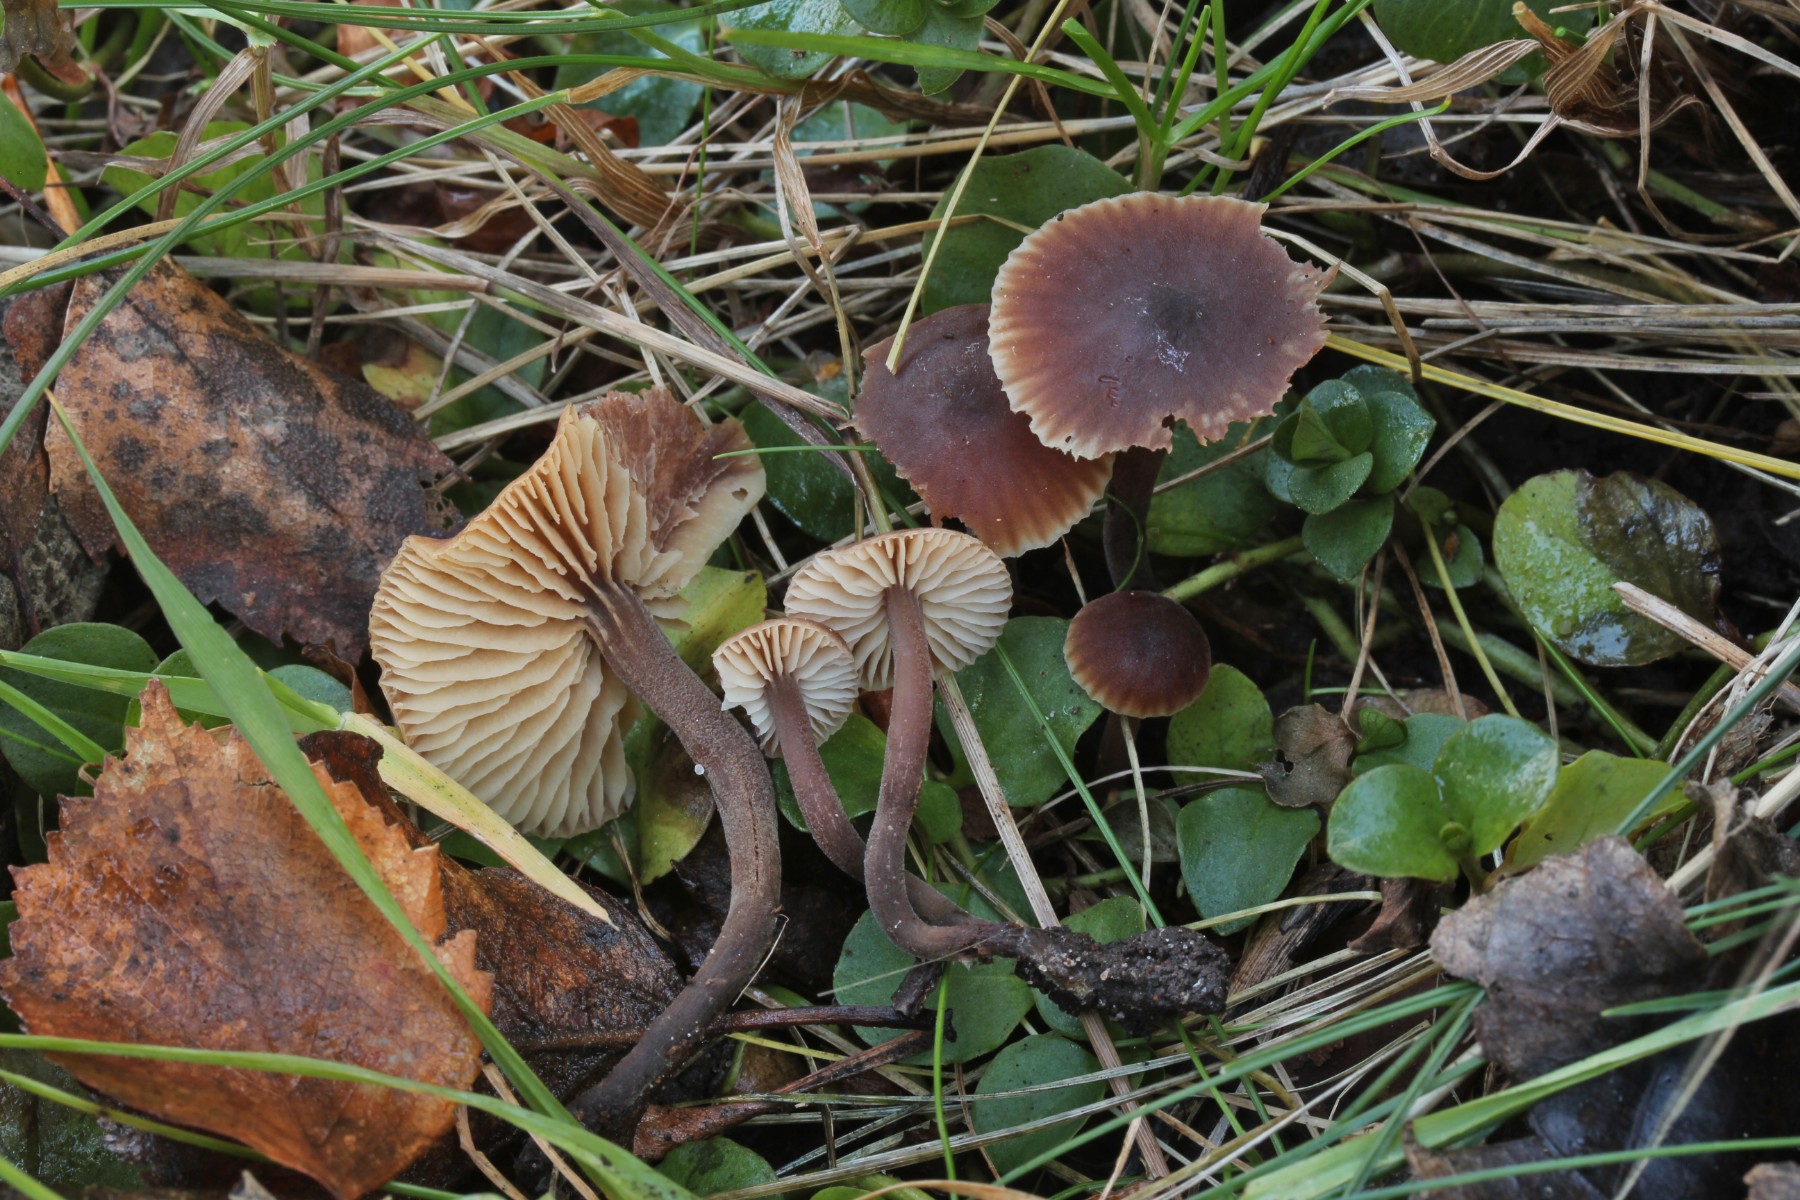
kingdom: Fungi
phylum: Basidiomycota
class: Agaricomycetes
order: Agaricales
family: Macrocystidiaceae
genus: Macrocystidia
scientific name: Macrocystidia cucumis
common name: Cucumber cap
